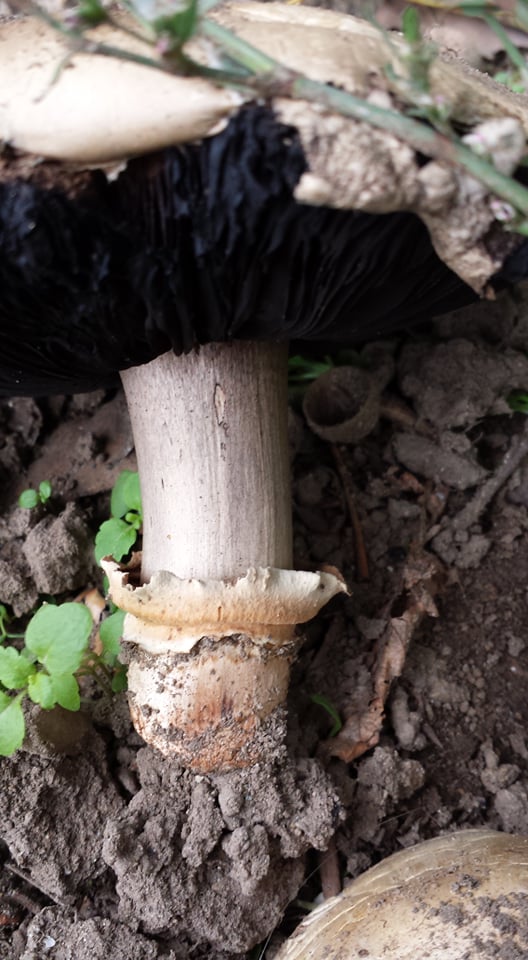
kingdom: Fungi
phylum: Basidiomycota
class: Agaricomycetes
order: Agaricales
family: Agaricaceae
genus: Agaricus
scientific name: Agaricus bitorquis
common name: vej-champignon
